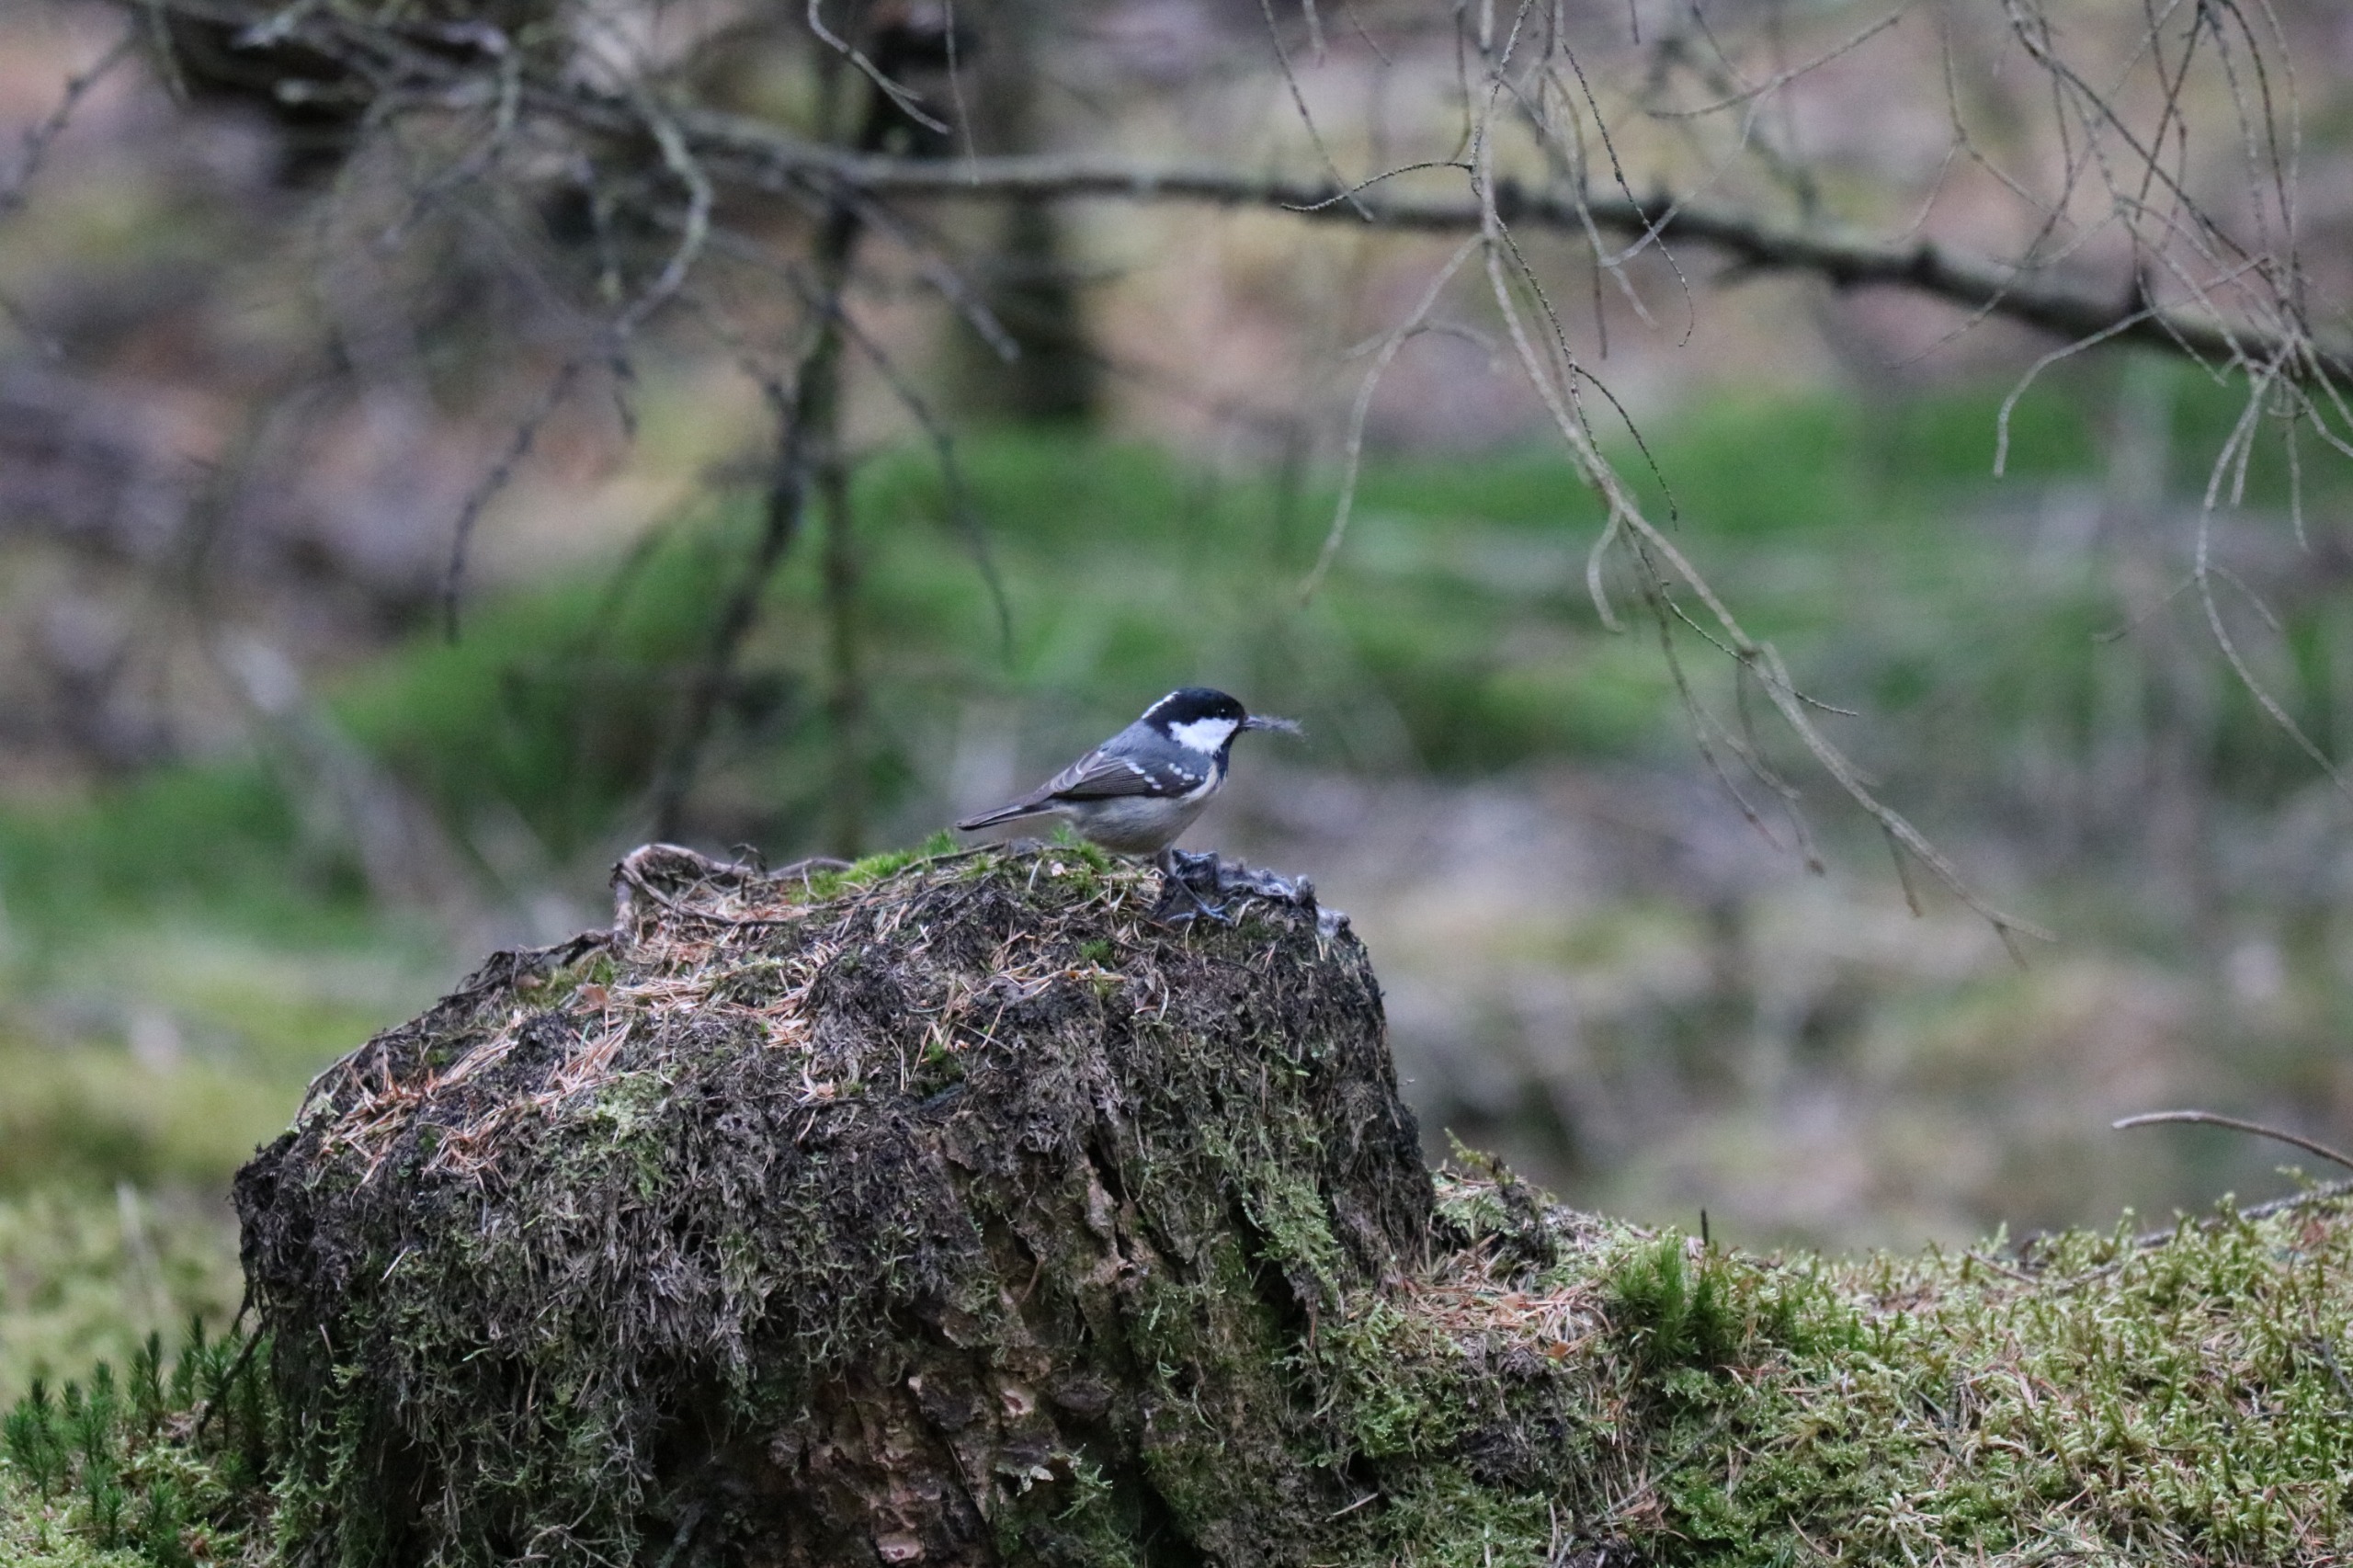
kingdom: Animalia
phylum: Chordata
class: Aves
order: Passeriformes
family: Paridae
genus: Periparus
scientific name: Periparus ater
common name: Sortmejse
